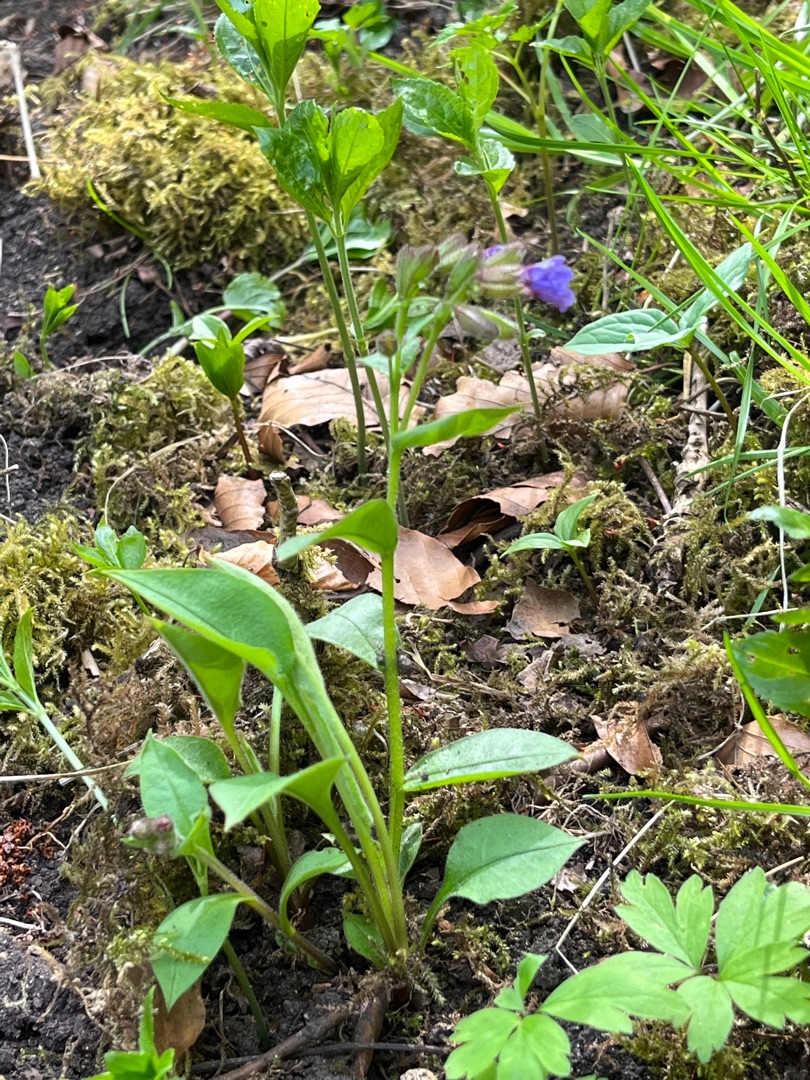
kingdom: Plantae
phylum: Tracheophyta
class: Magnoliopsida
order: Boraginales
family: Boraginaceae
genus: Pulmonaria
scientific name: Pulmonaria obscura
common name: Almindelig lungeurt
